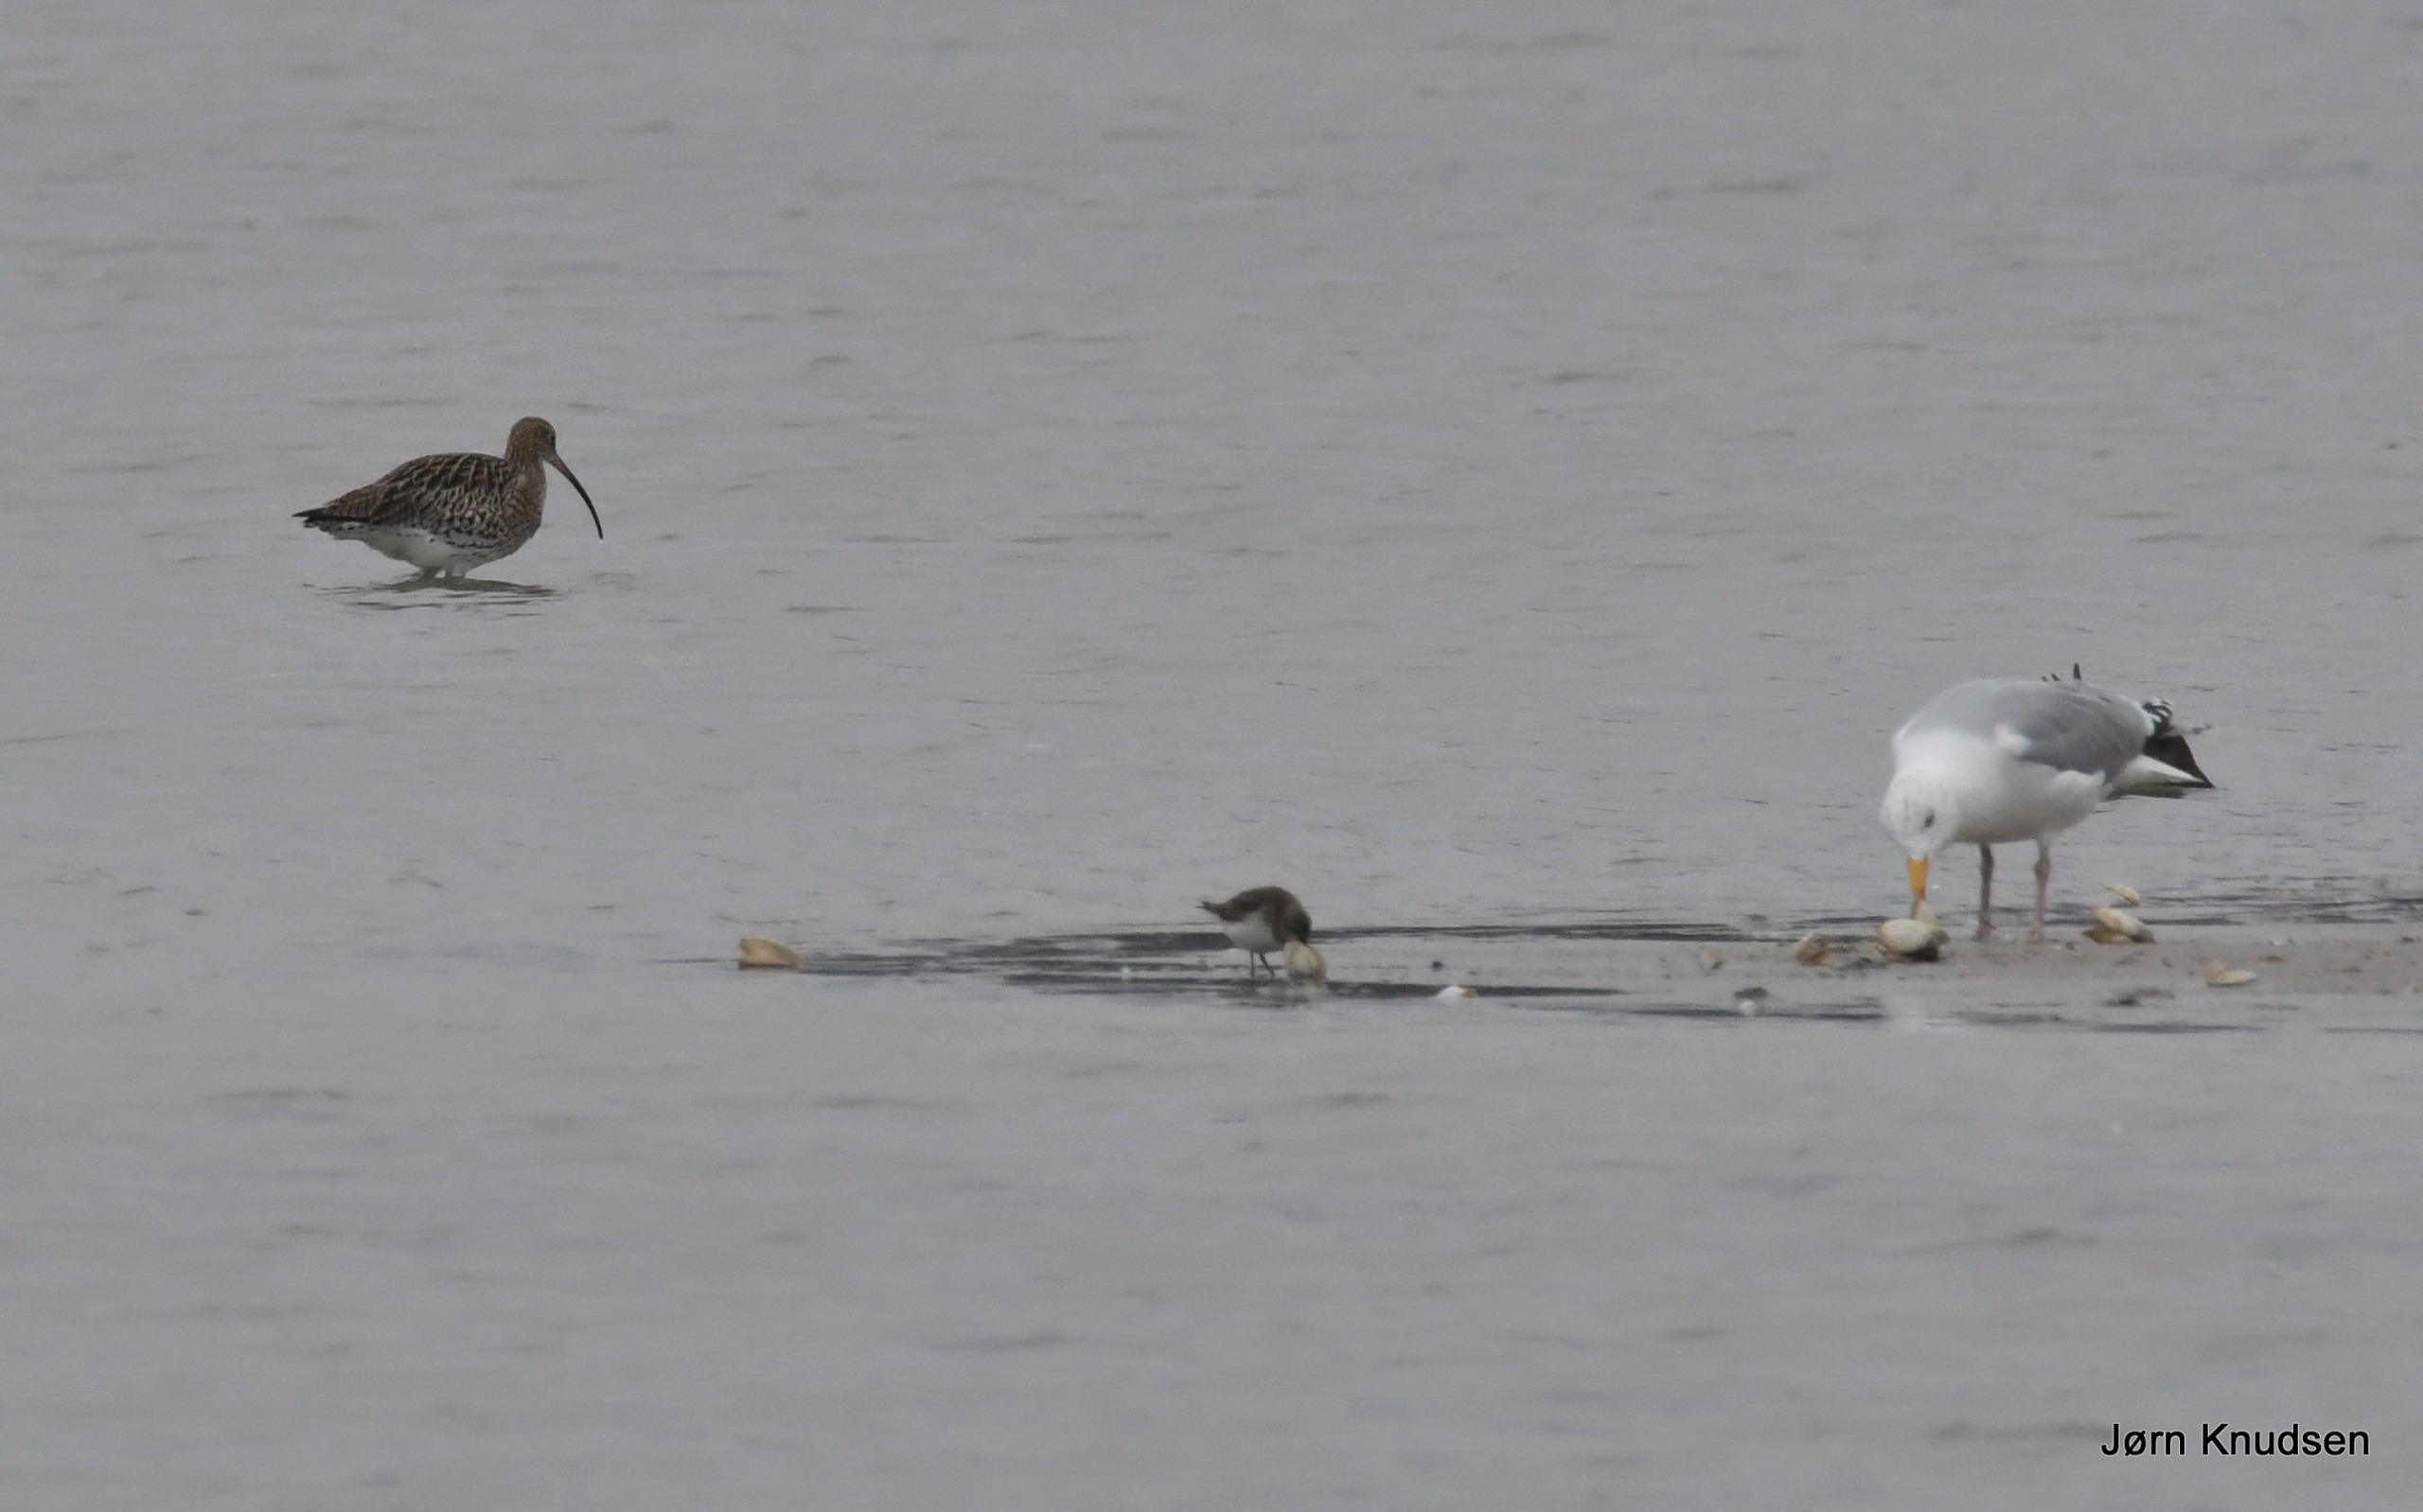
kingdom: Animalia
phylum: Chordata
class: Aves
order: Charadriiformes
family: Laridae
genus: Larus
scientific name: Larus argentatus
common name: Sølvmåge
